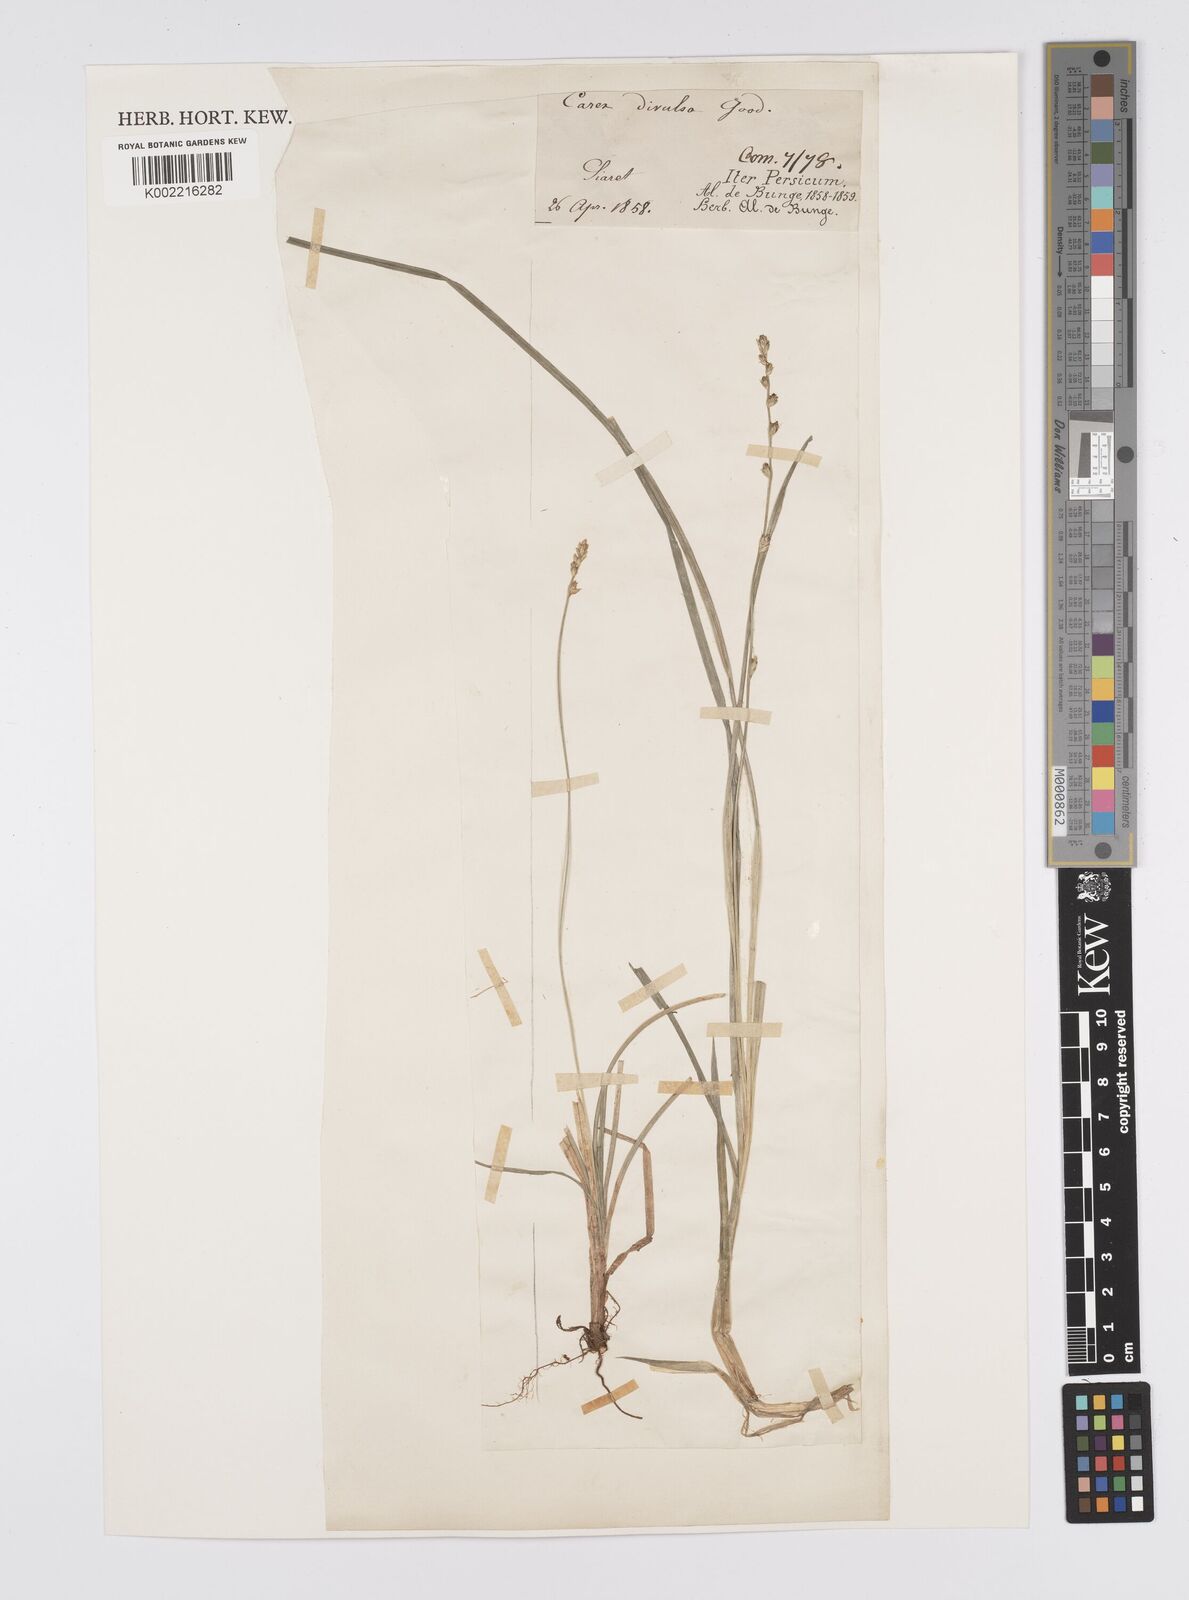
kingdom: Plantae
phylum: Tracheophyta
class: Liliopsida
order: Poales
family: Cyperaceae
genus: Carex
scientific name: Carex divulsa
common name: Grassland sedge
